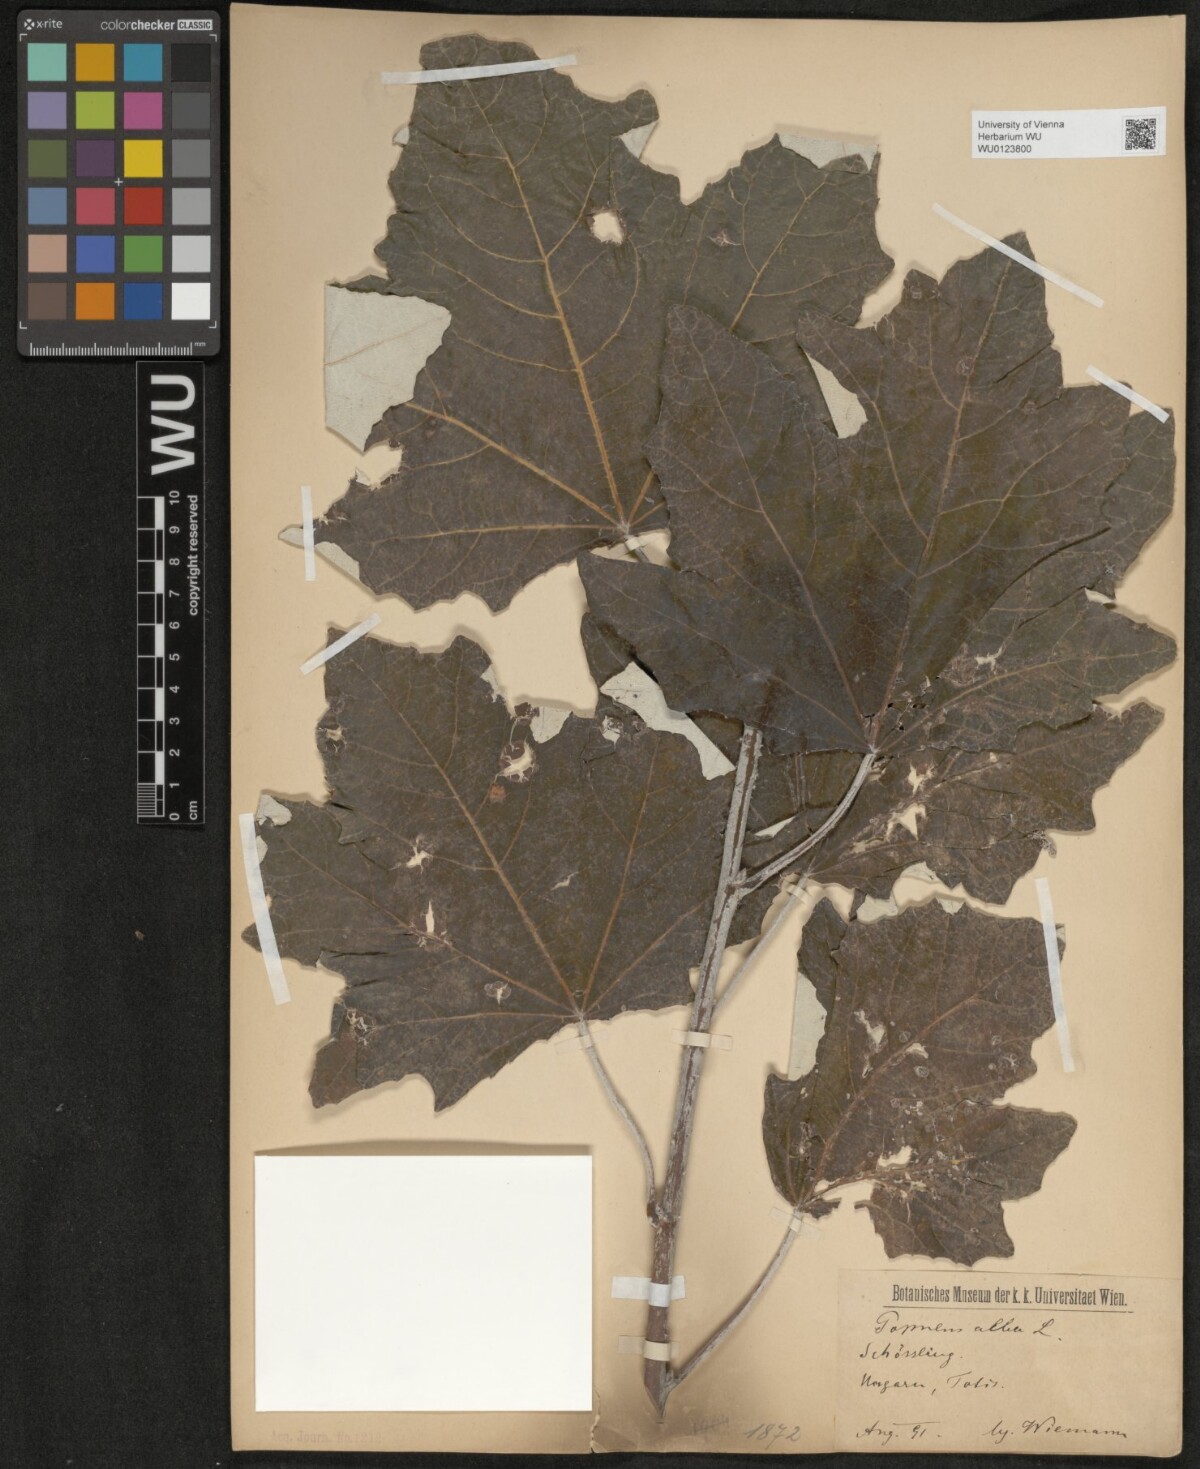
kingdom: Plantae
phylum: Tracheophyta
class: Magnoliopsida
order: Malpighiales
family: Salicaceae
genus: Populus
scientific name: Populus alba
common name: White poplar
